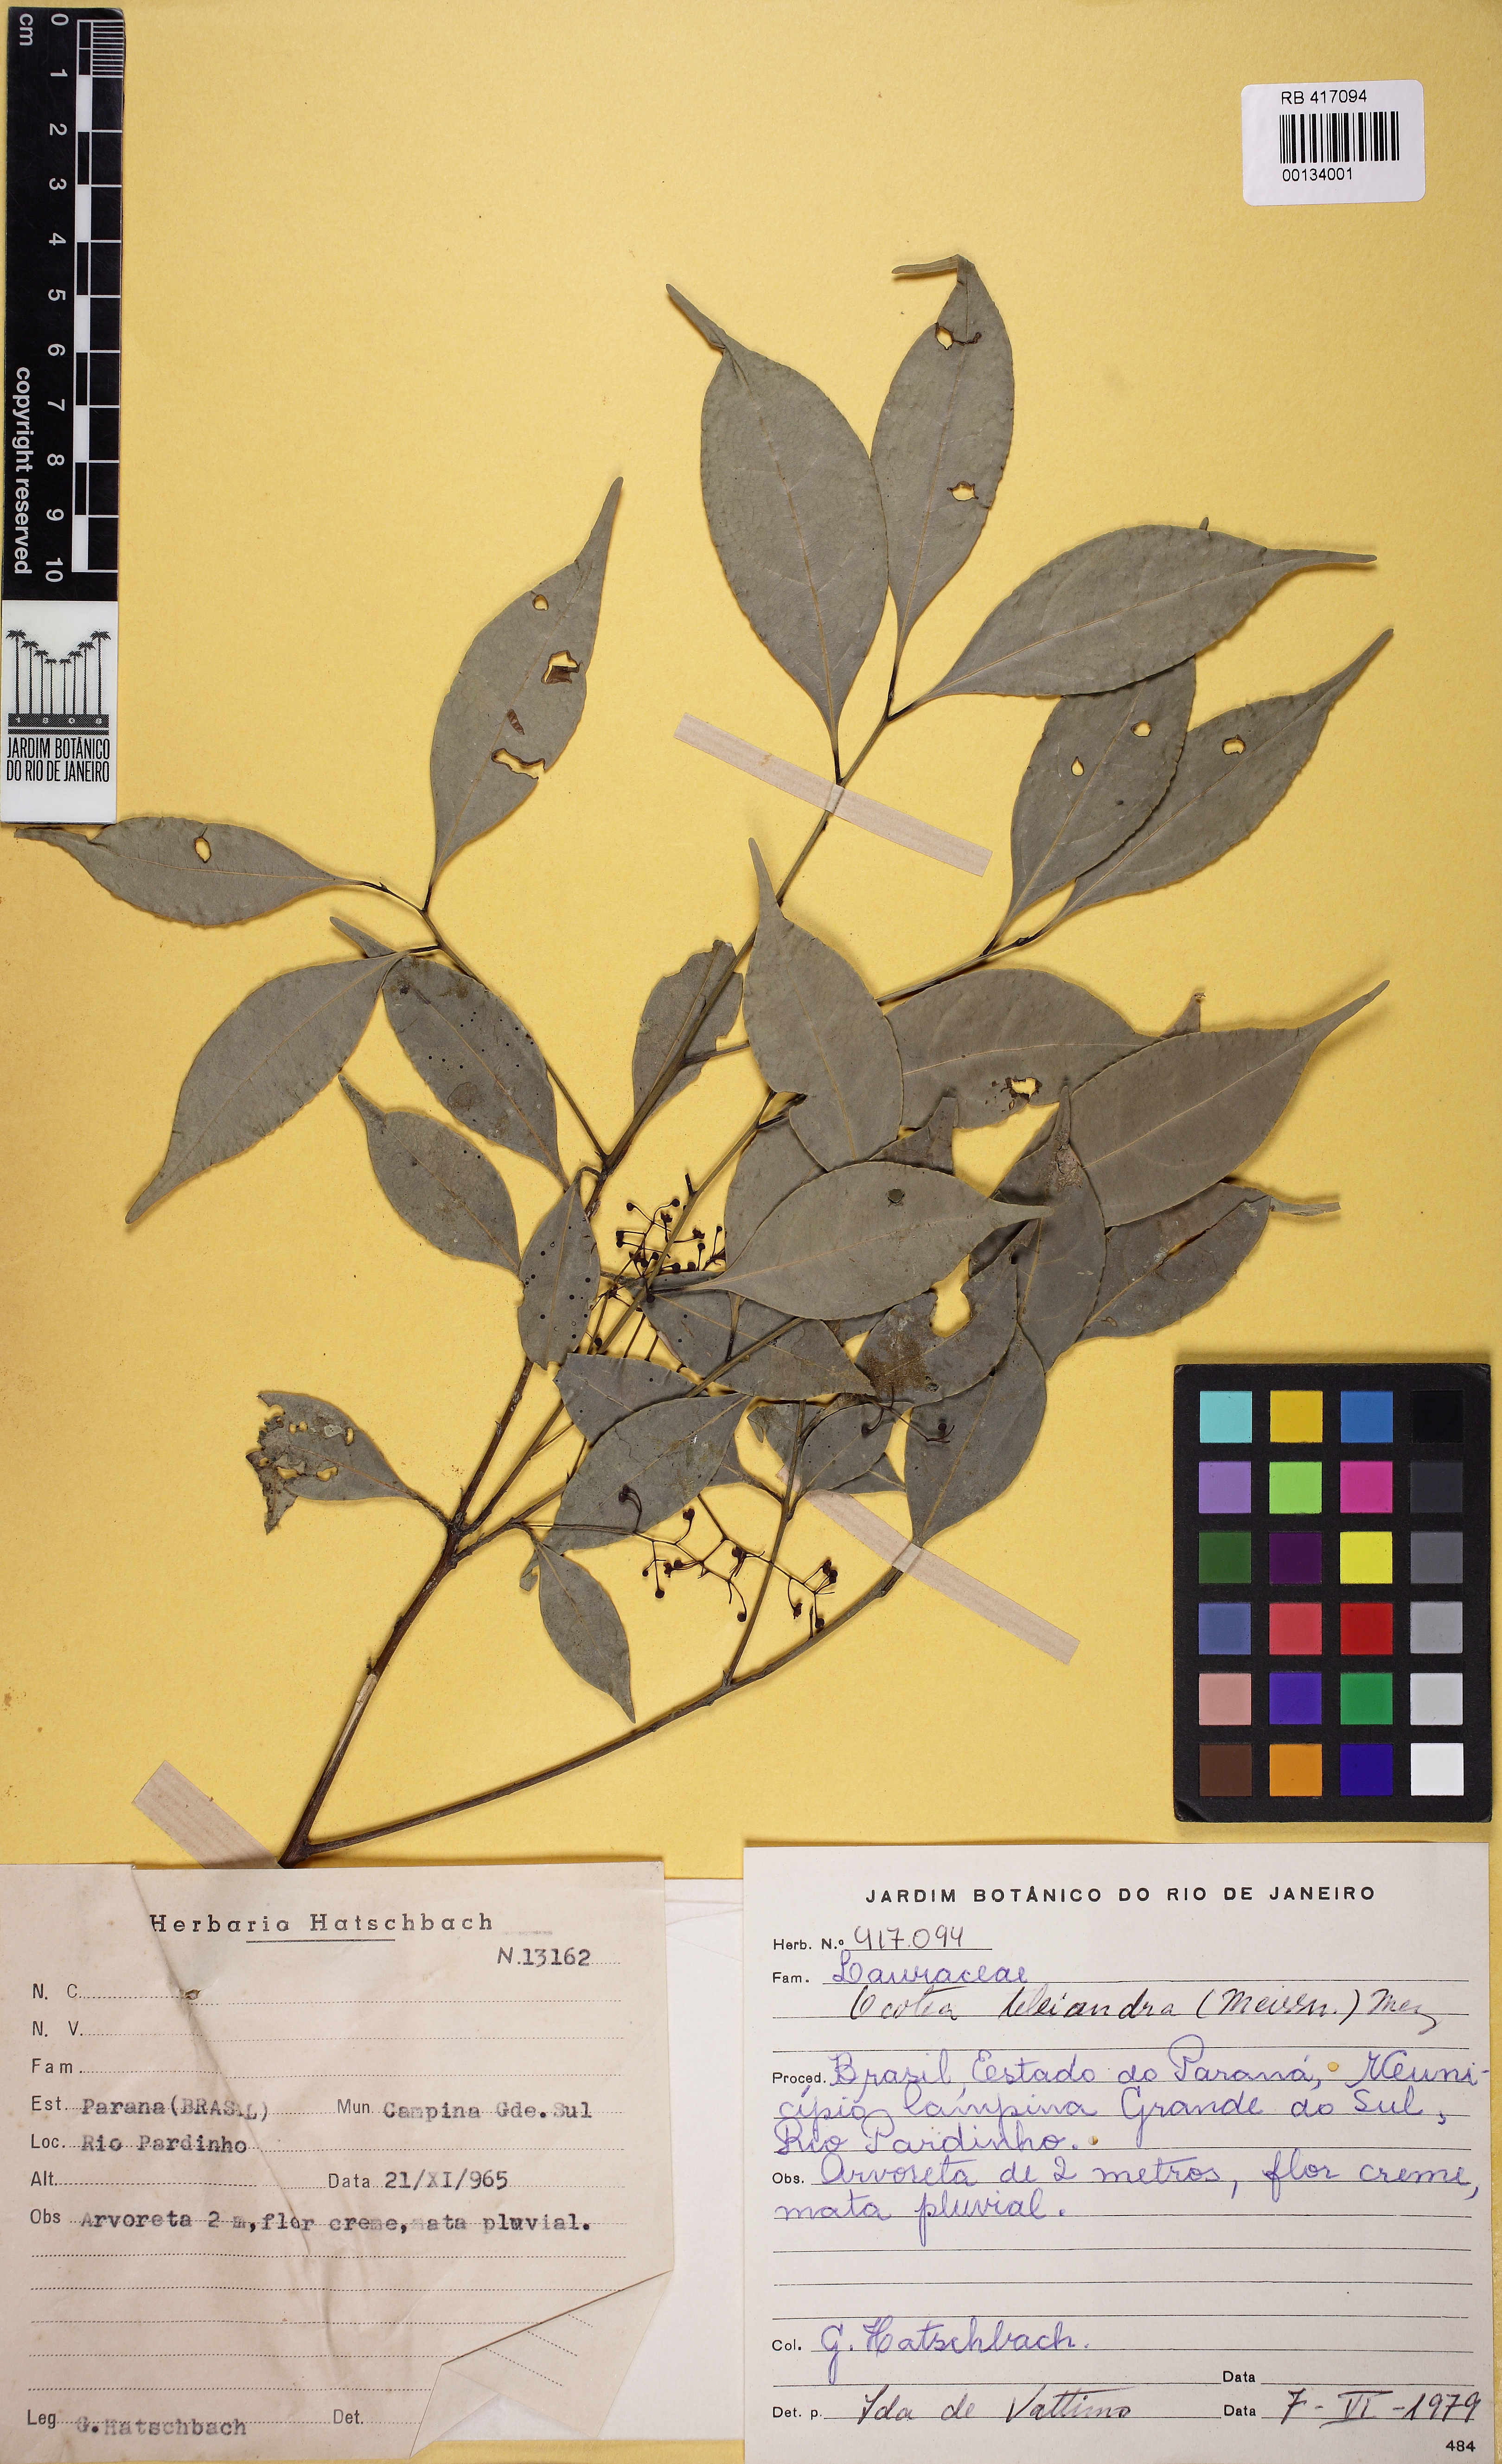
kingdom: Plantae
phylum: Tracheophyta
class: Magnoliopsida
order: Laurales
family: Lauraceae
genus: Ocotea
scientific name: Ocotea teleiandra
